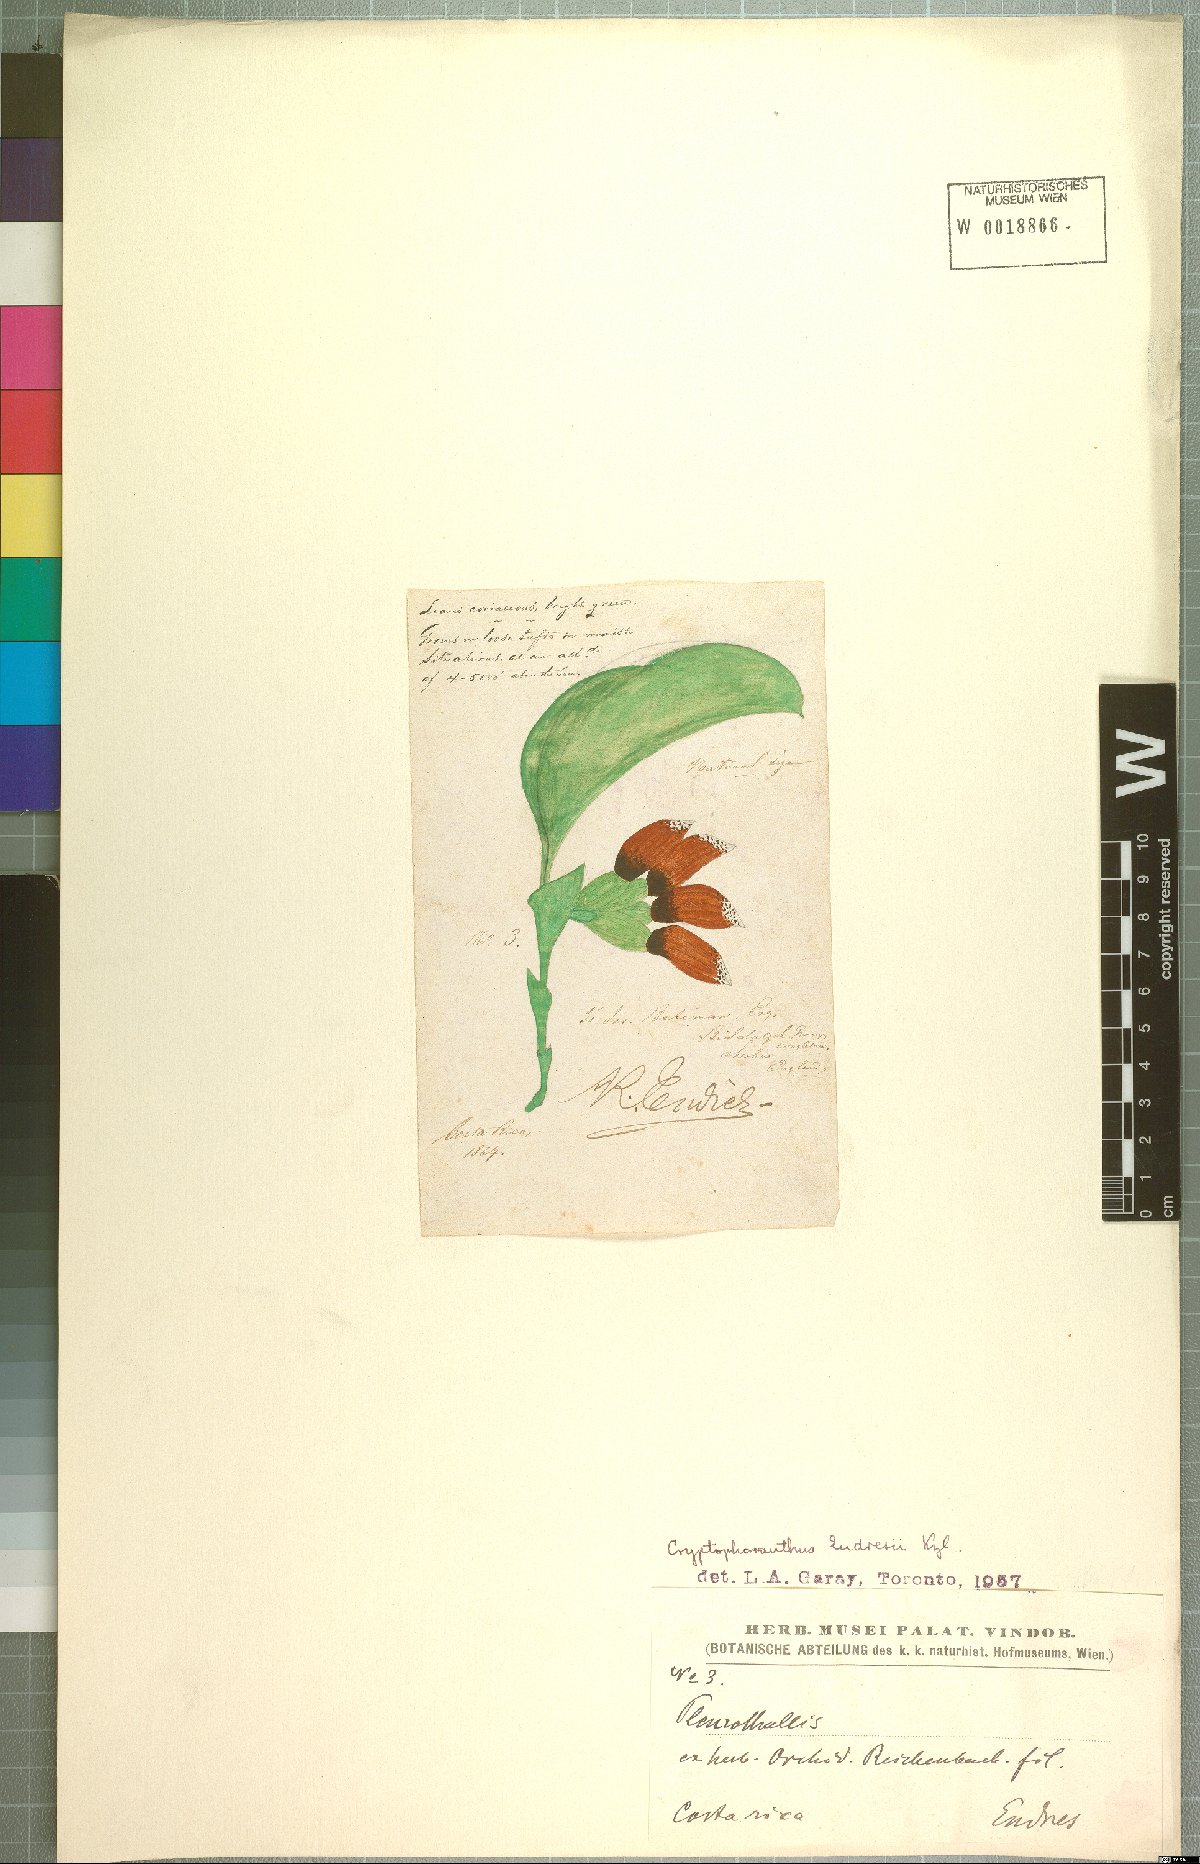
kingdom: Plantae
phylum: Tracheophyta
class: Liliopsida
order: Asparagales
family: Orchidaceae
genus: Zootrophion
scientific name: Zootrophion endresianum
